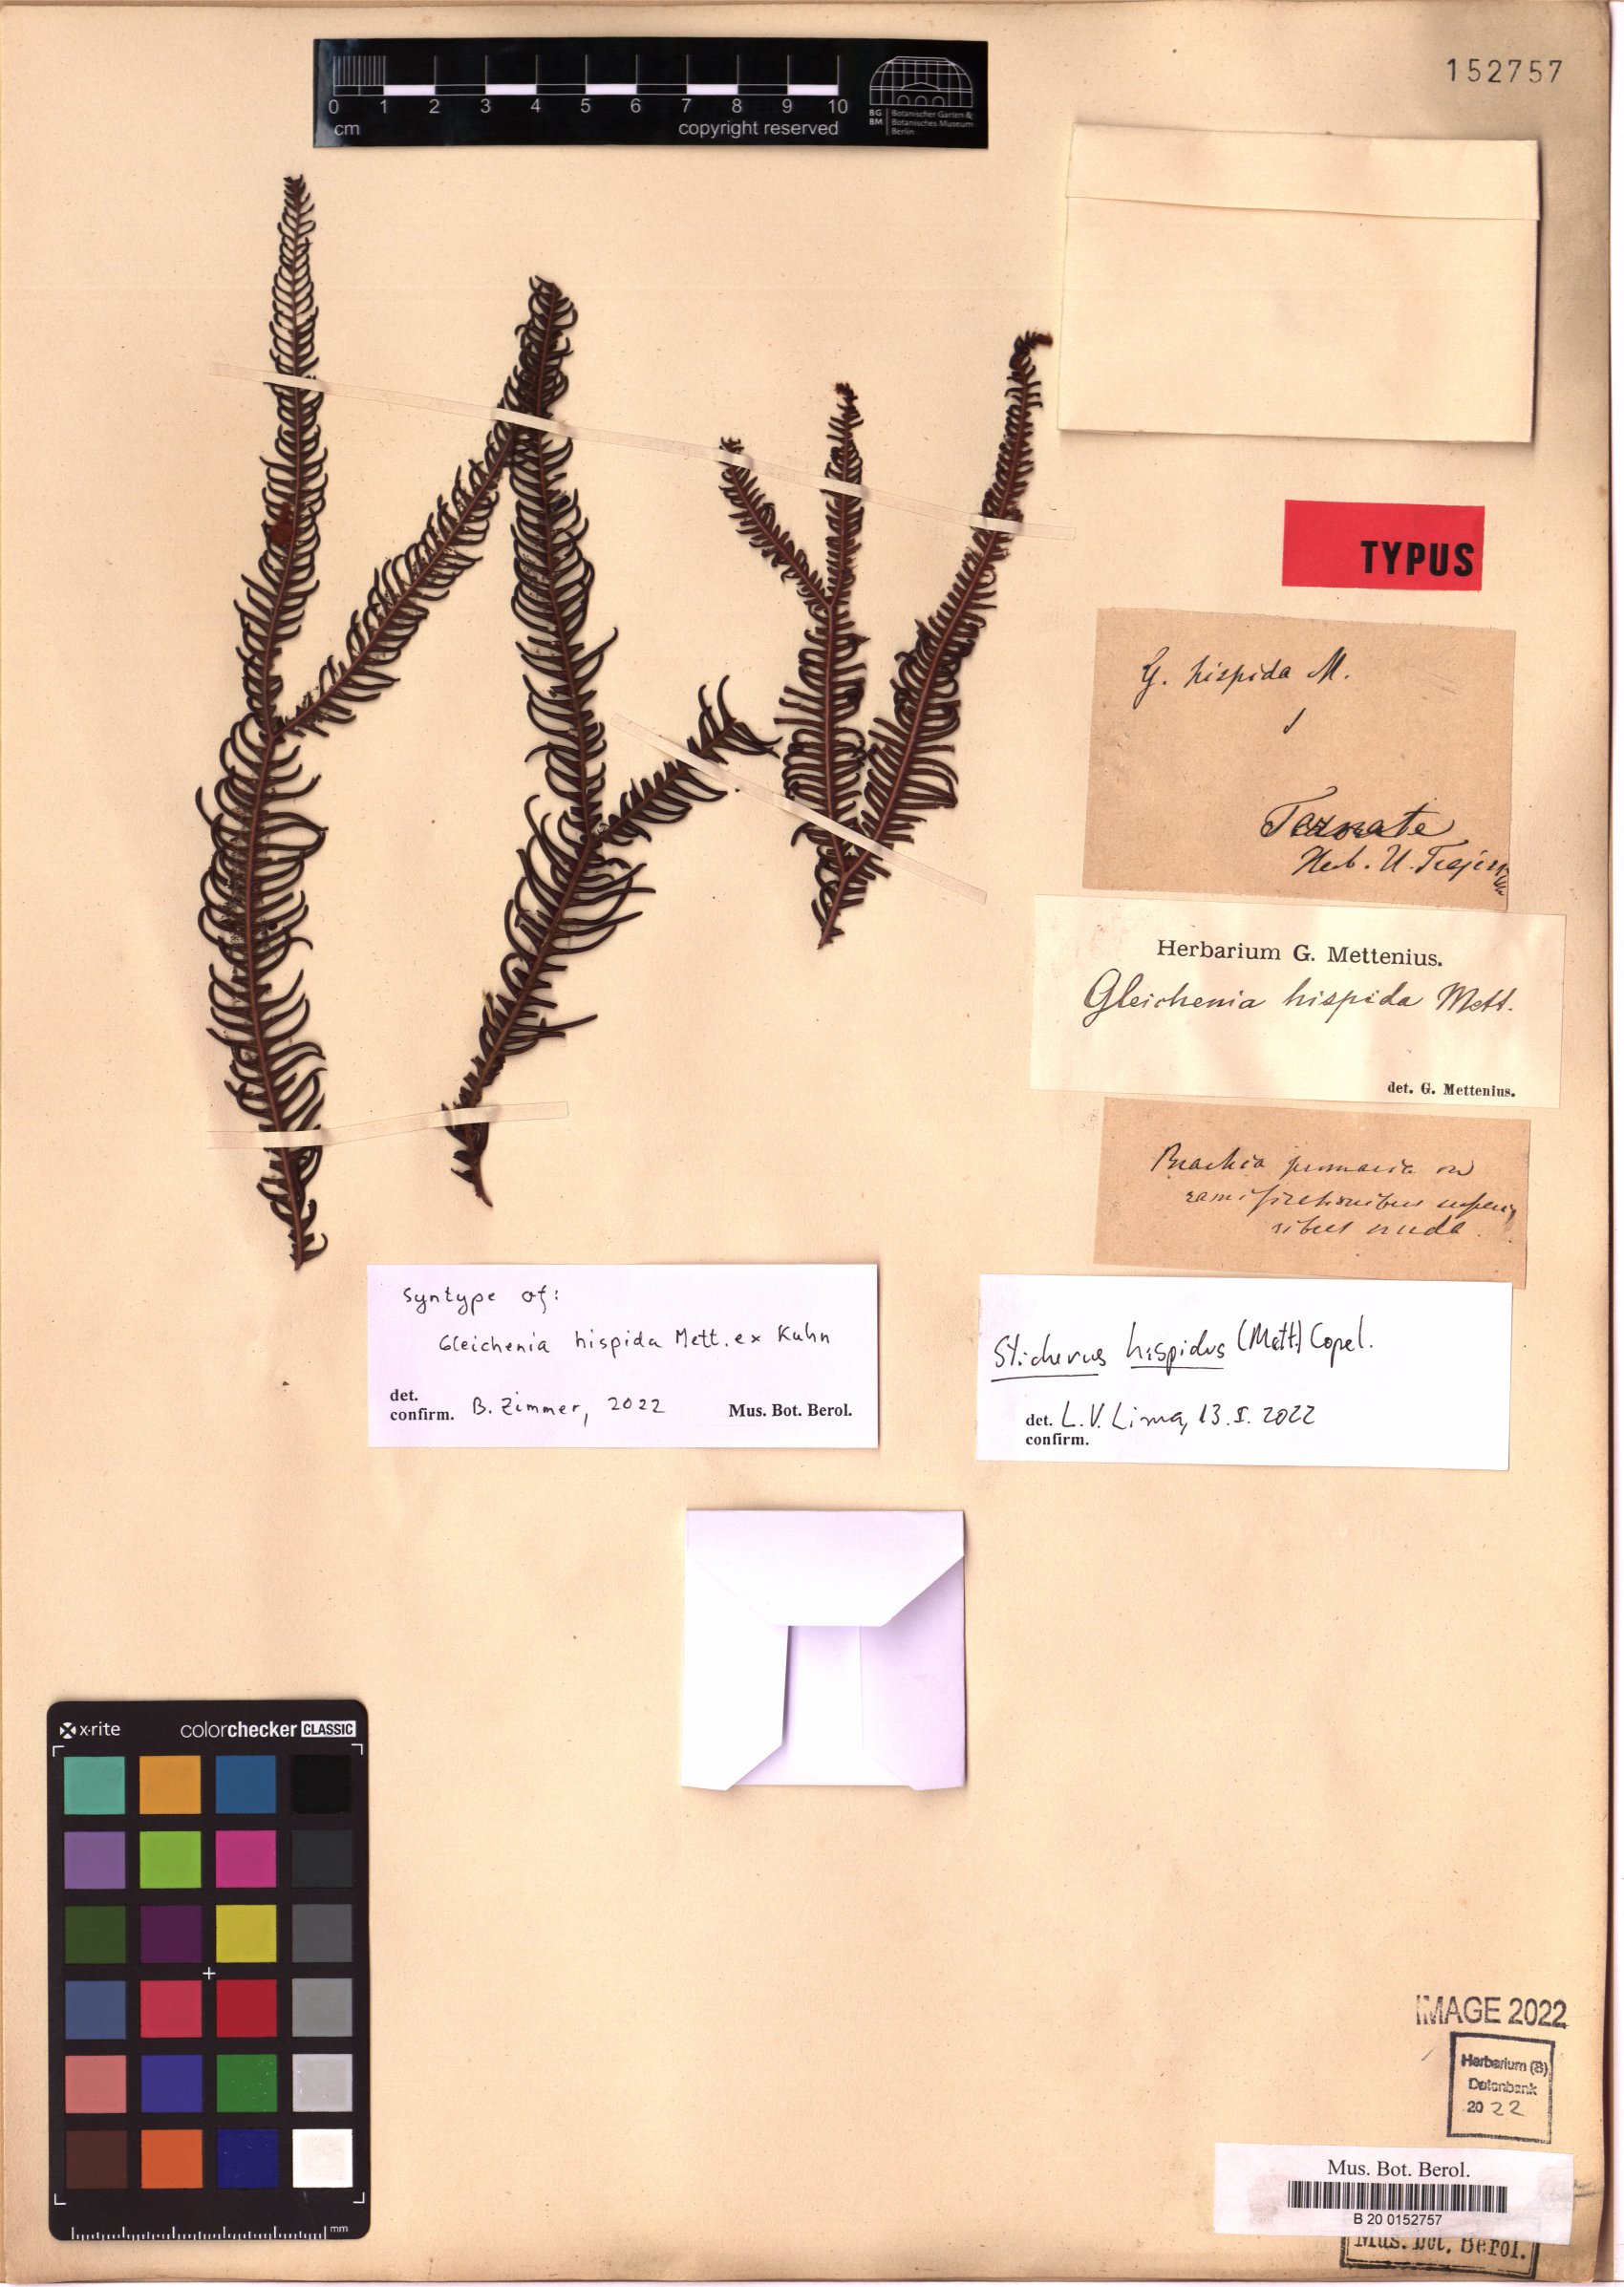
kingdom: Plantae
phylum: Tracheophyta
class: Polypodiopsida
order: Gleicheniales
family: Gleicheniaceae
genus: Sticherus
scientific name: Sticherus hispidus
